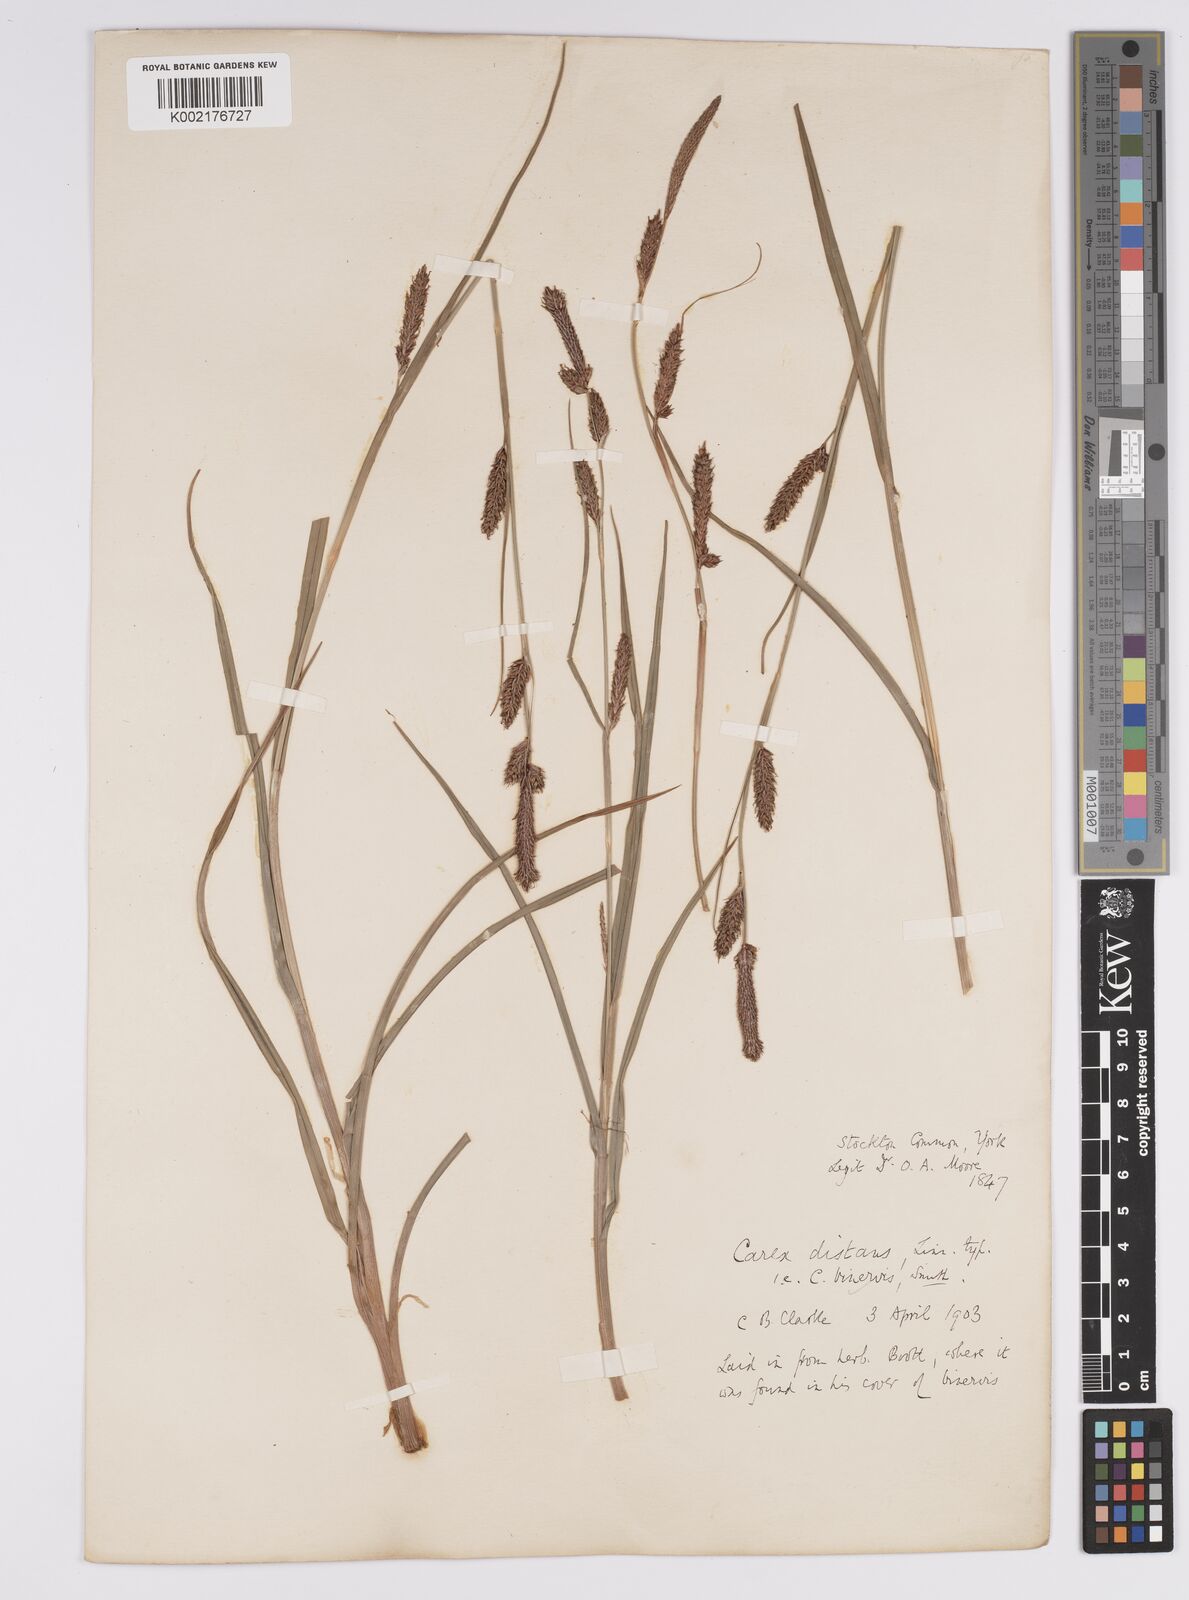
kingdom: Plantae
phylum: Tracheophyta
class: Liliopsida
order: Poales
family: Cyperaceae
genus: Carex
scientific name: Carex binervis
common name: Green-ribbed sedge
